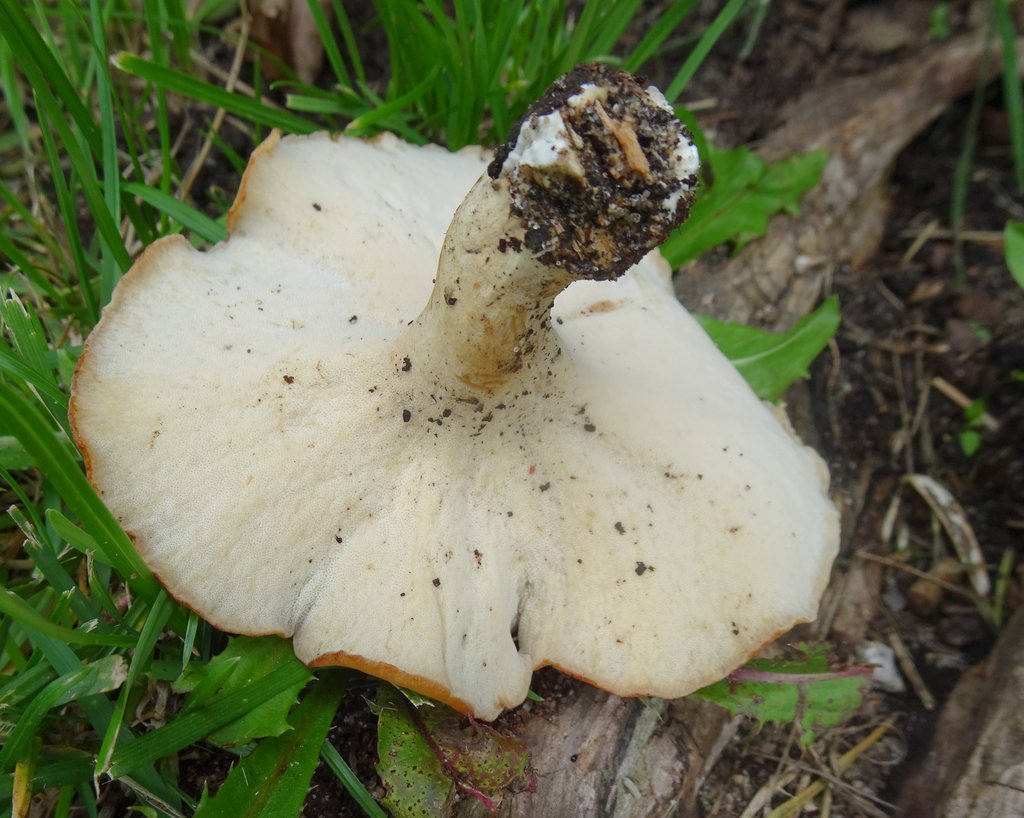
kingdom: Fungi
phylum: Basidiomycota
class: Agaricomycetes
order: Polyporales
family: Polyporaceae
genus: Cerioporus
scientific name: Cerioporus varius
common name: foranderlig stilkporesvamp
